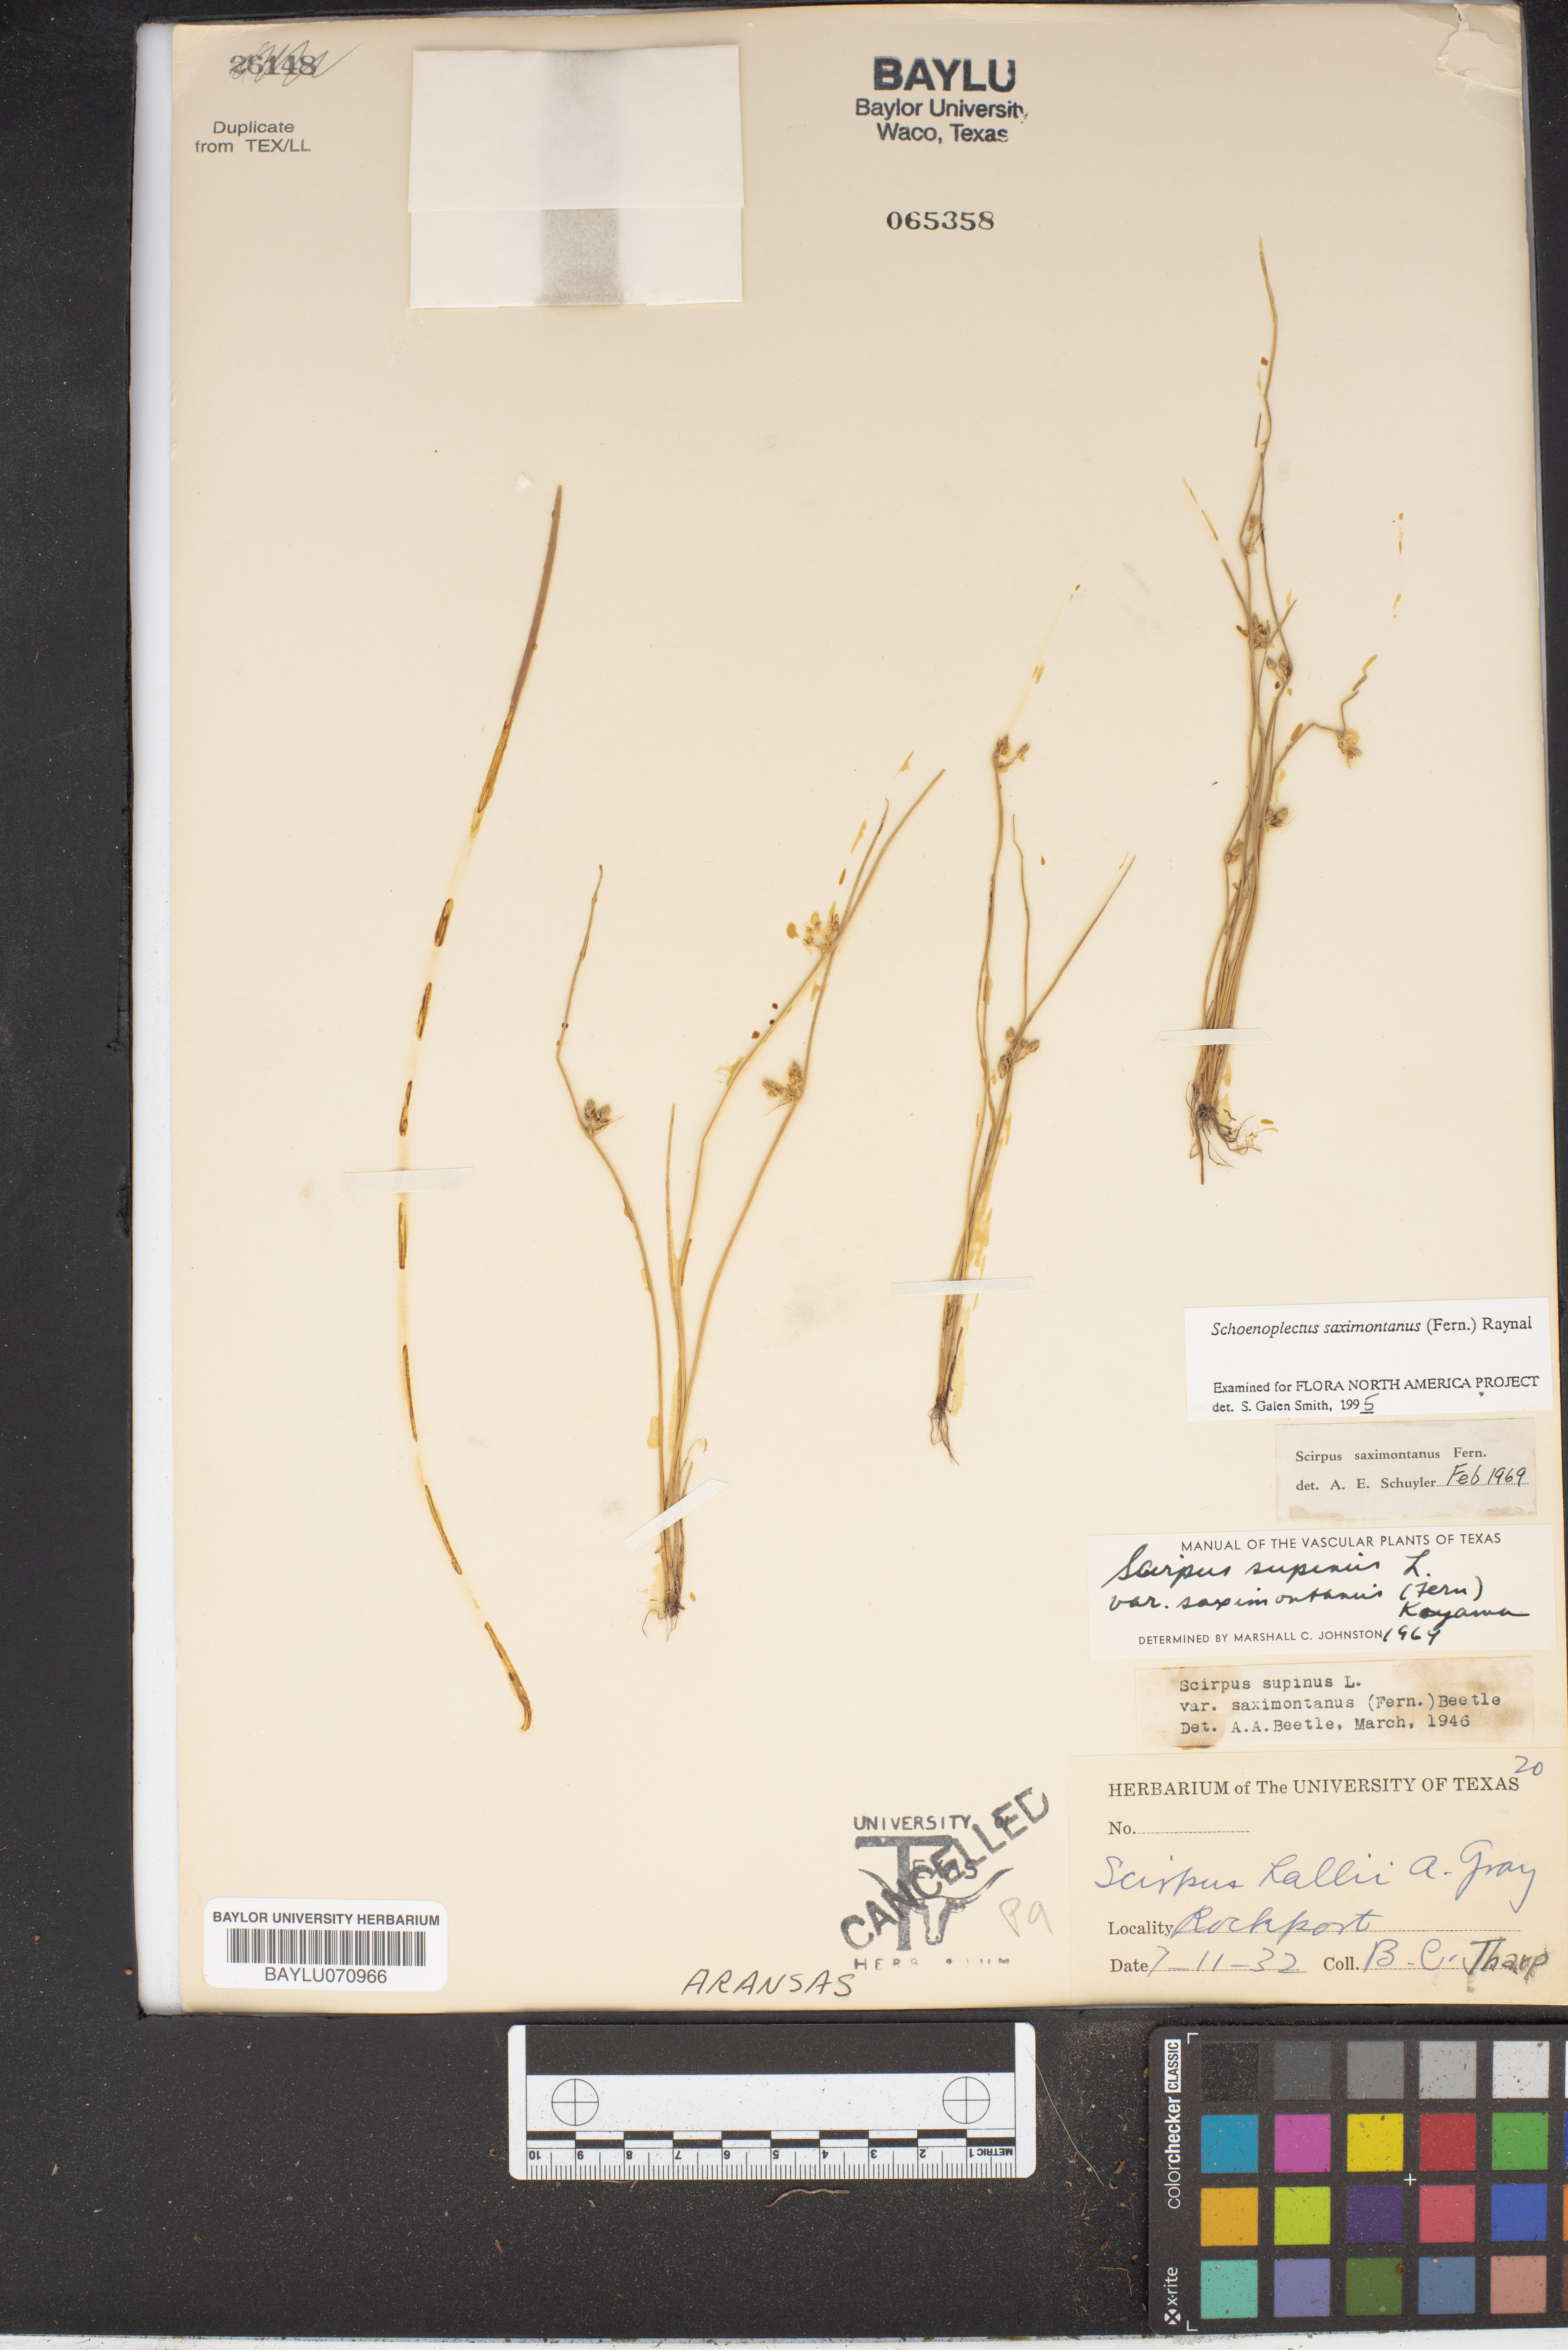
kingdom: Plantae
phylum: Tracheophyta
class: Liliopsida
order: Poales
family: Cyperaceae
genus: Schoenoplectiella
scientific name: Schoenoplectiella saximontana
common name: Rocky mountain clubrush
